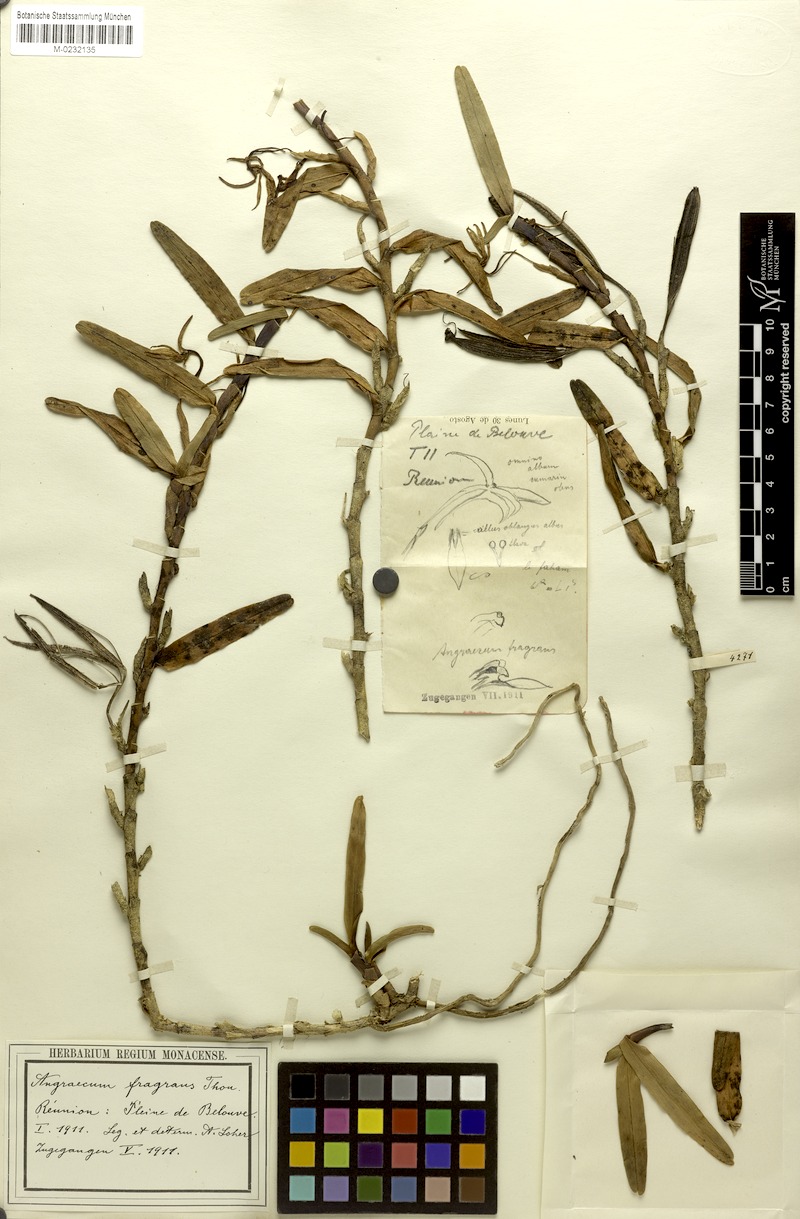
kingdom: Plantae
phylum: Tracheophyta
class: Liliopsida
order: Asparagales
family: Orchidaceae
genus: Jumellea
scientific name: Jumellea fragrans
